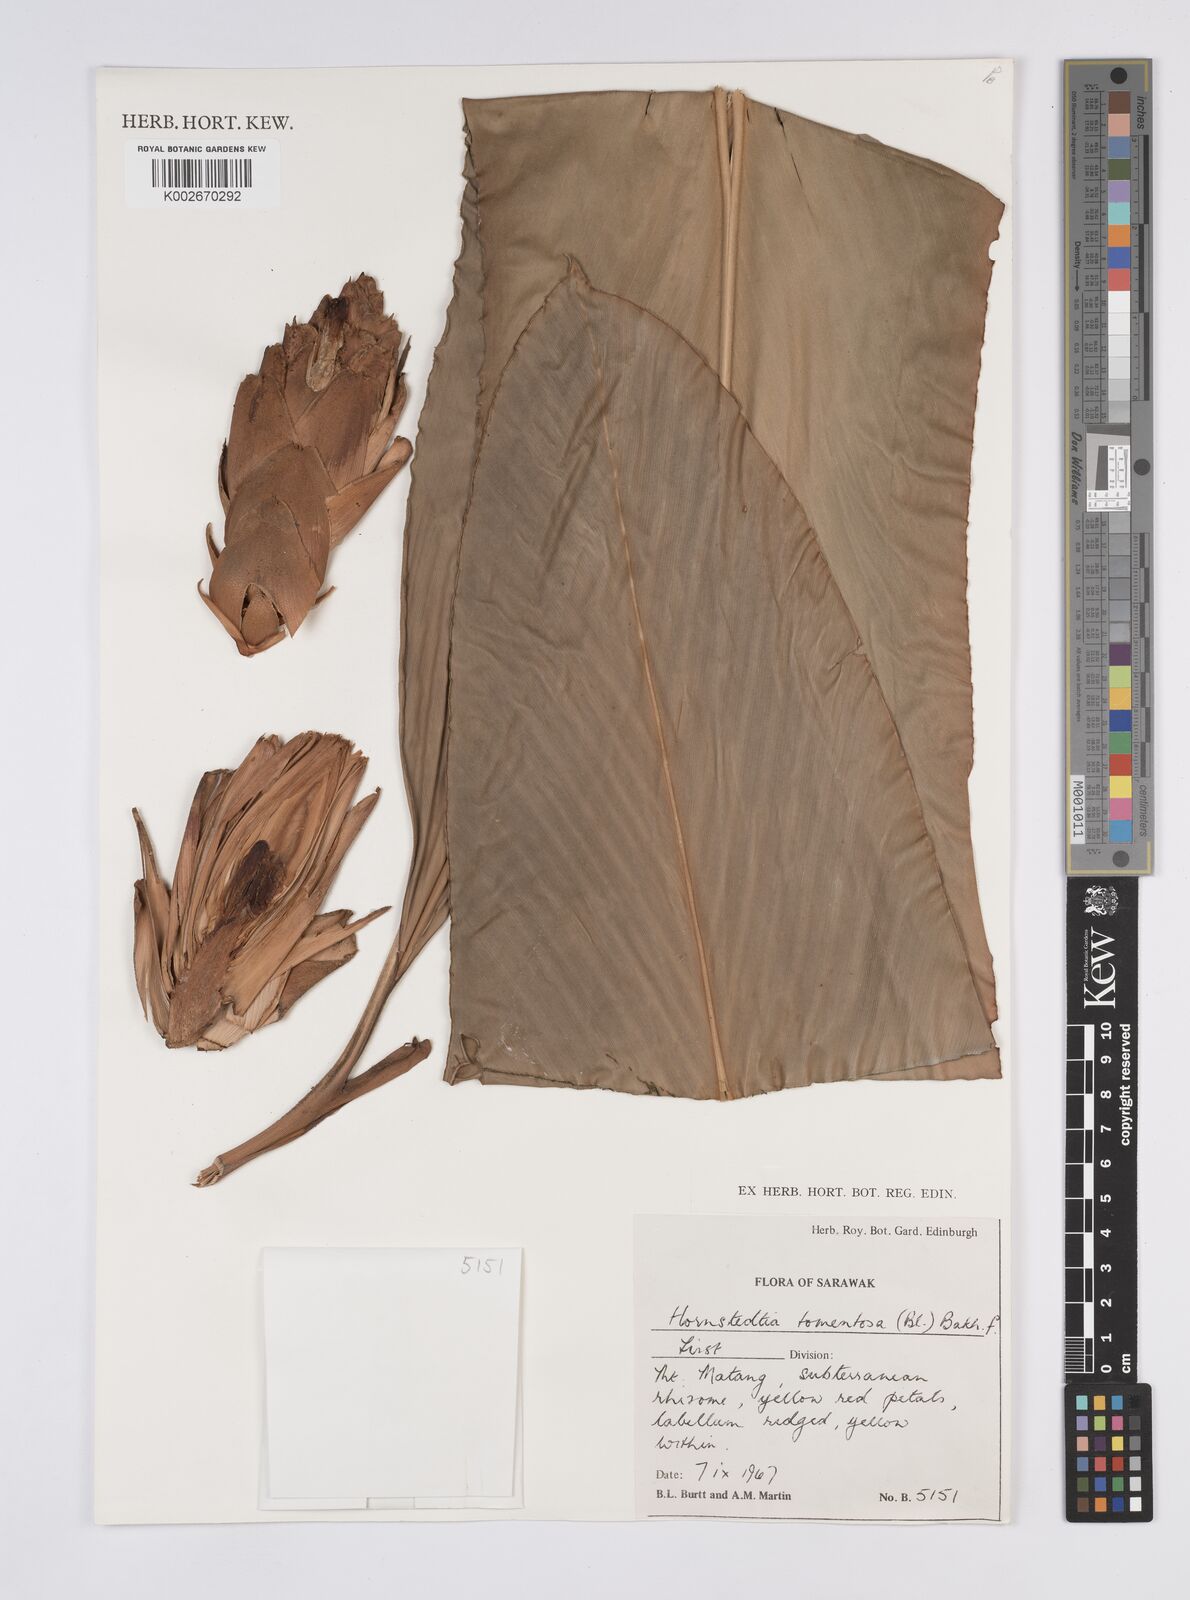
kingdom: Plantae
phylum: Tracheophyta
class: Liliopsida
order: Zingiberales
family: Zingiberaceae
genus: Hornstedtia
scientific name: Hornstedtia tomentosa
